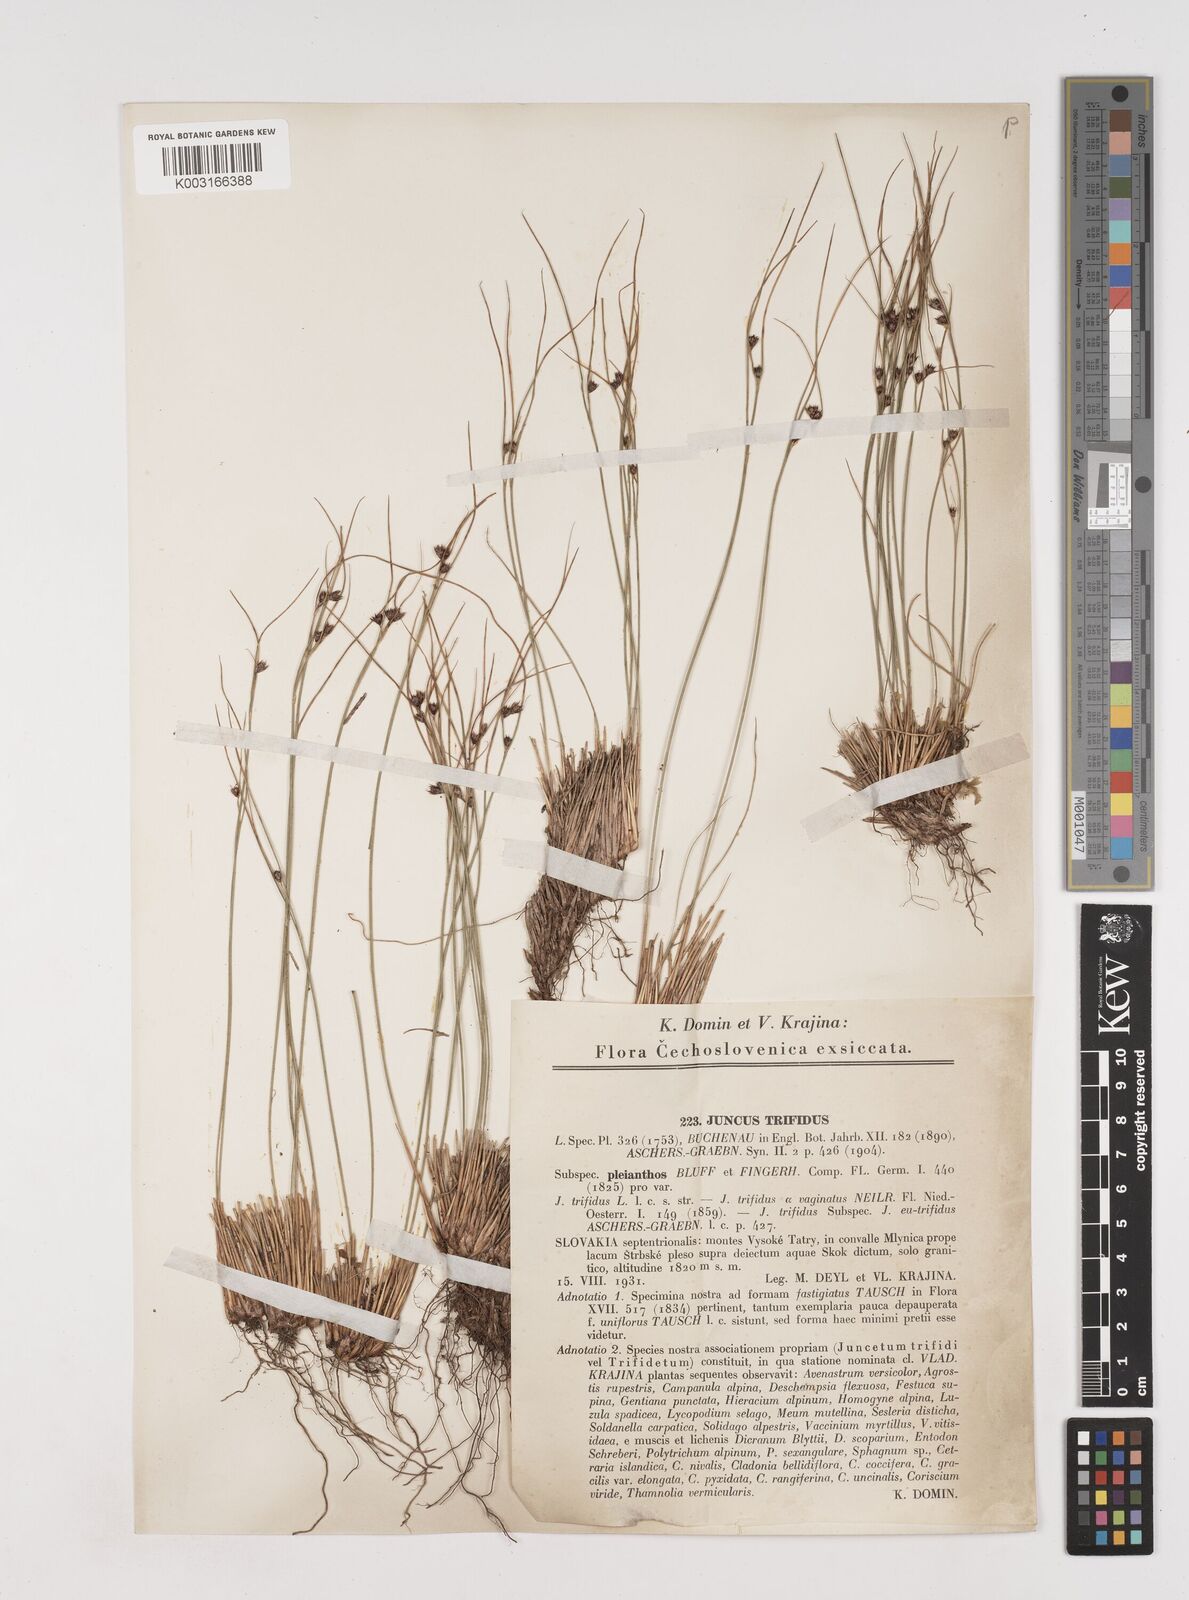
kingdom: Plantae
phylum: Tracheophyta
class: Liliopsida
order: Poales
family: Juncaceae
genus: Oreojuncus
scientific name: Oreojuncus trifidus
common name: Highland rush
